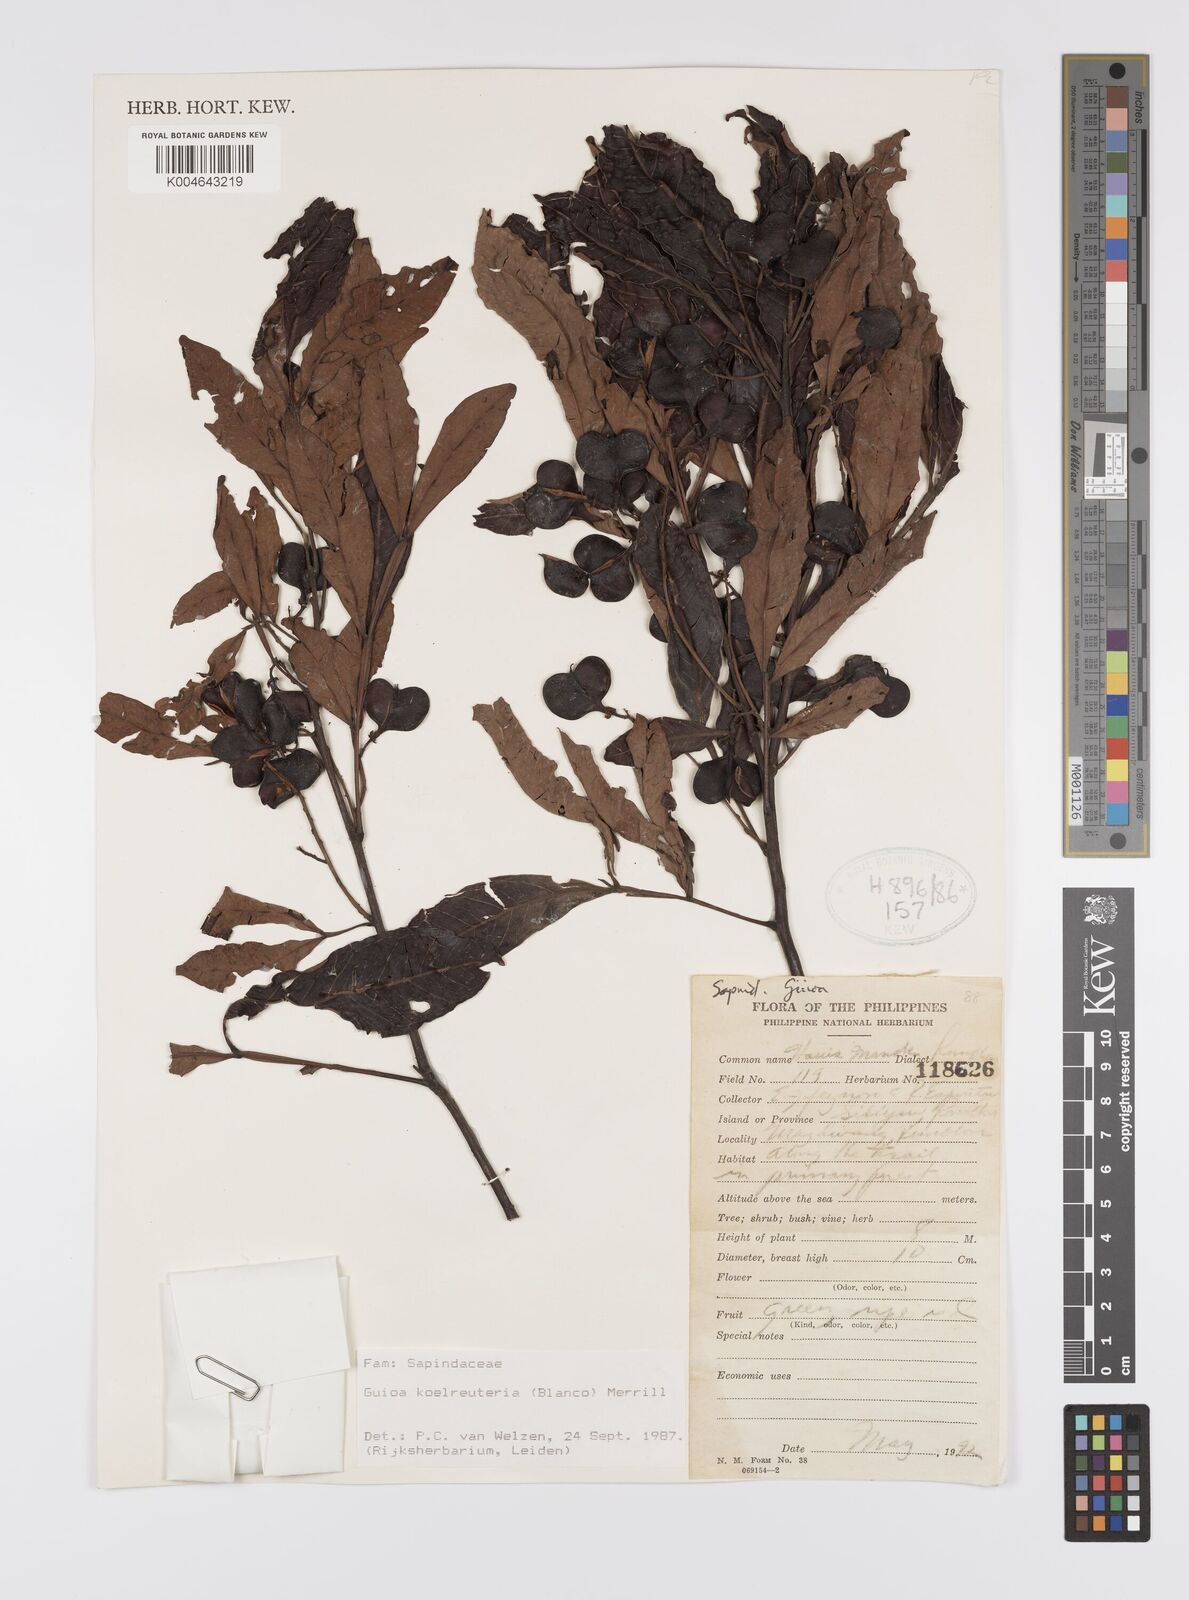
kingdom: Plantae
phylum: Tracheophyta
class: Magnoliopsida
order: Sapindales
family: Sapindaceae
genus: Guioa
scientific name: Guioa koelreuteria
